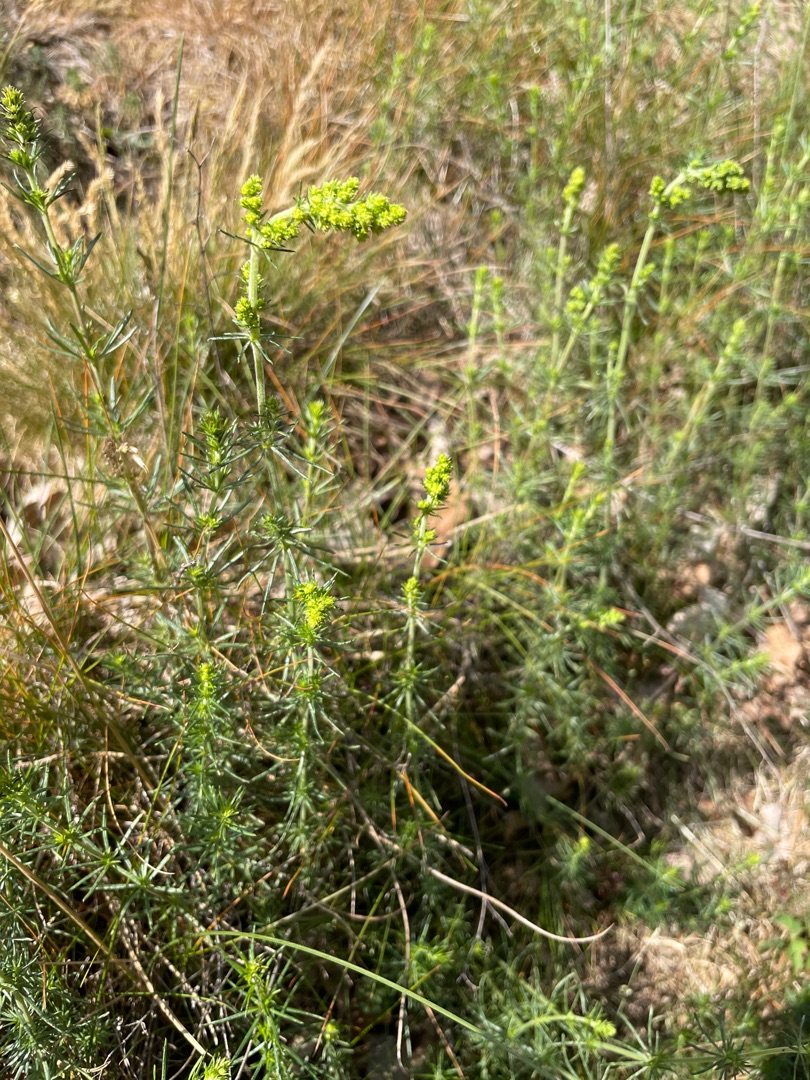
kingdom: Plantae
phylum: Tracheophyta
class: Magnoliopsida
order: Gentianales
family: Rubiaceae
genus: Galium
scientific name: Galium verum
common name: Gul snerre
